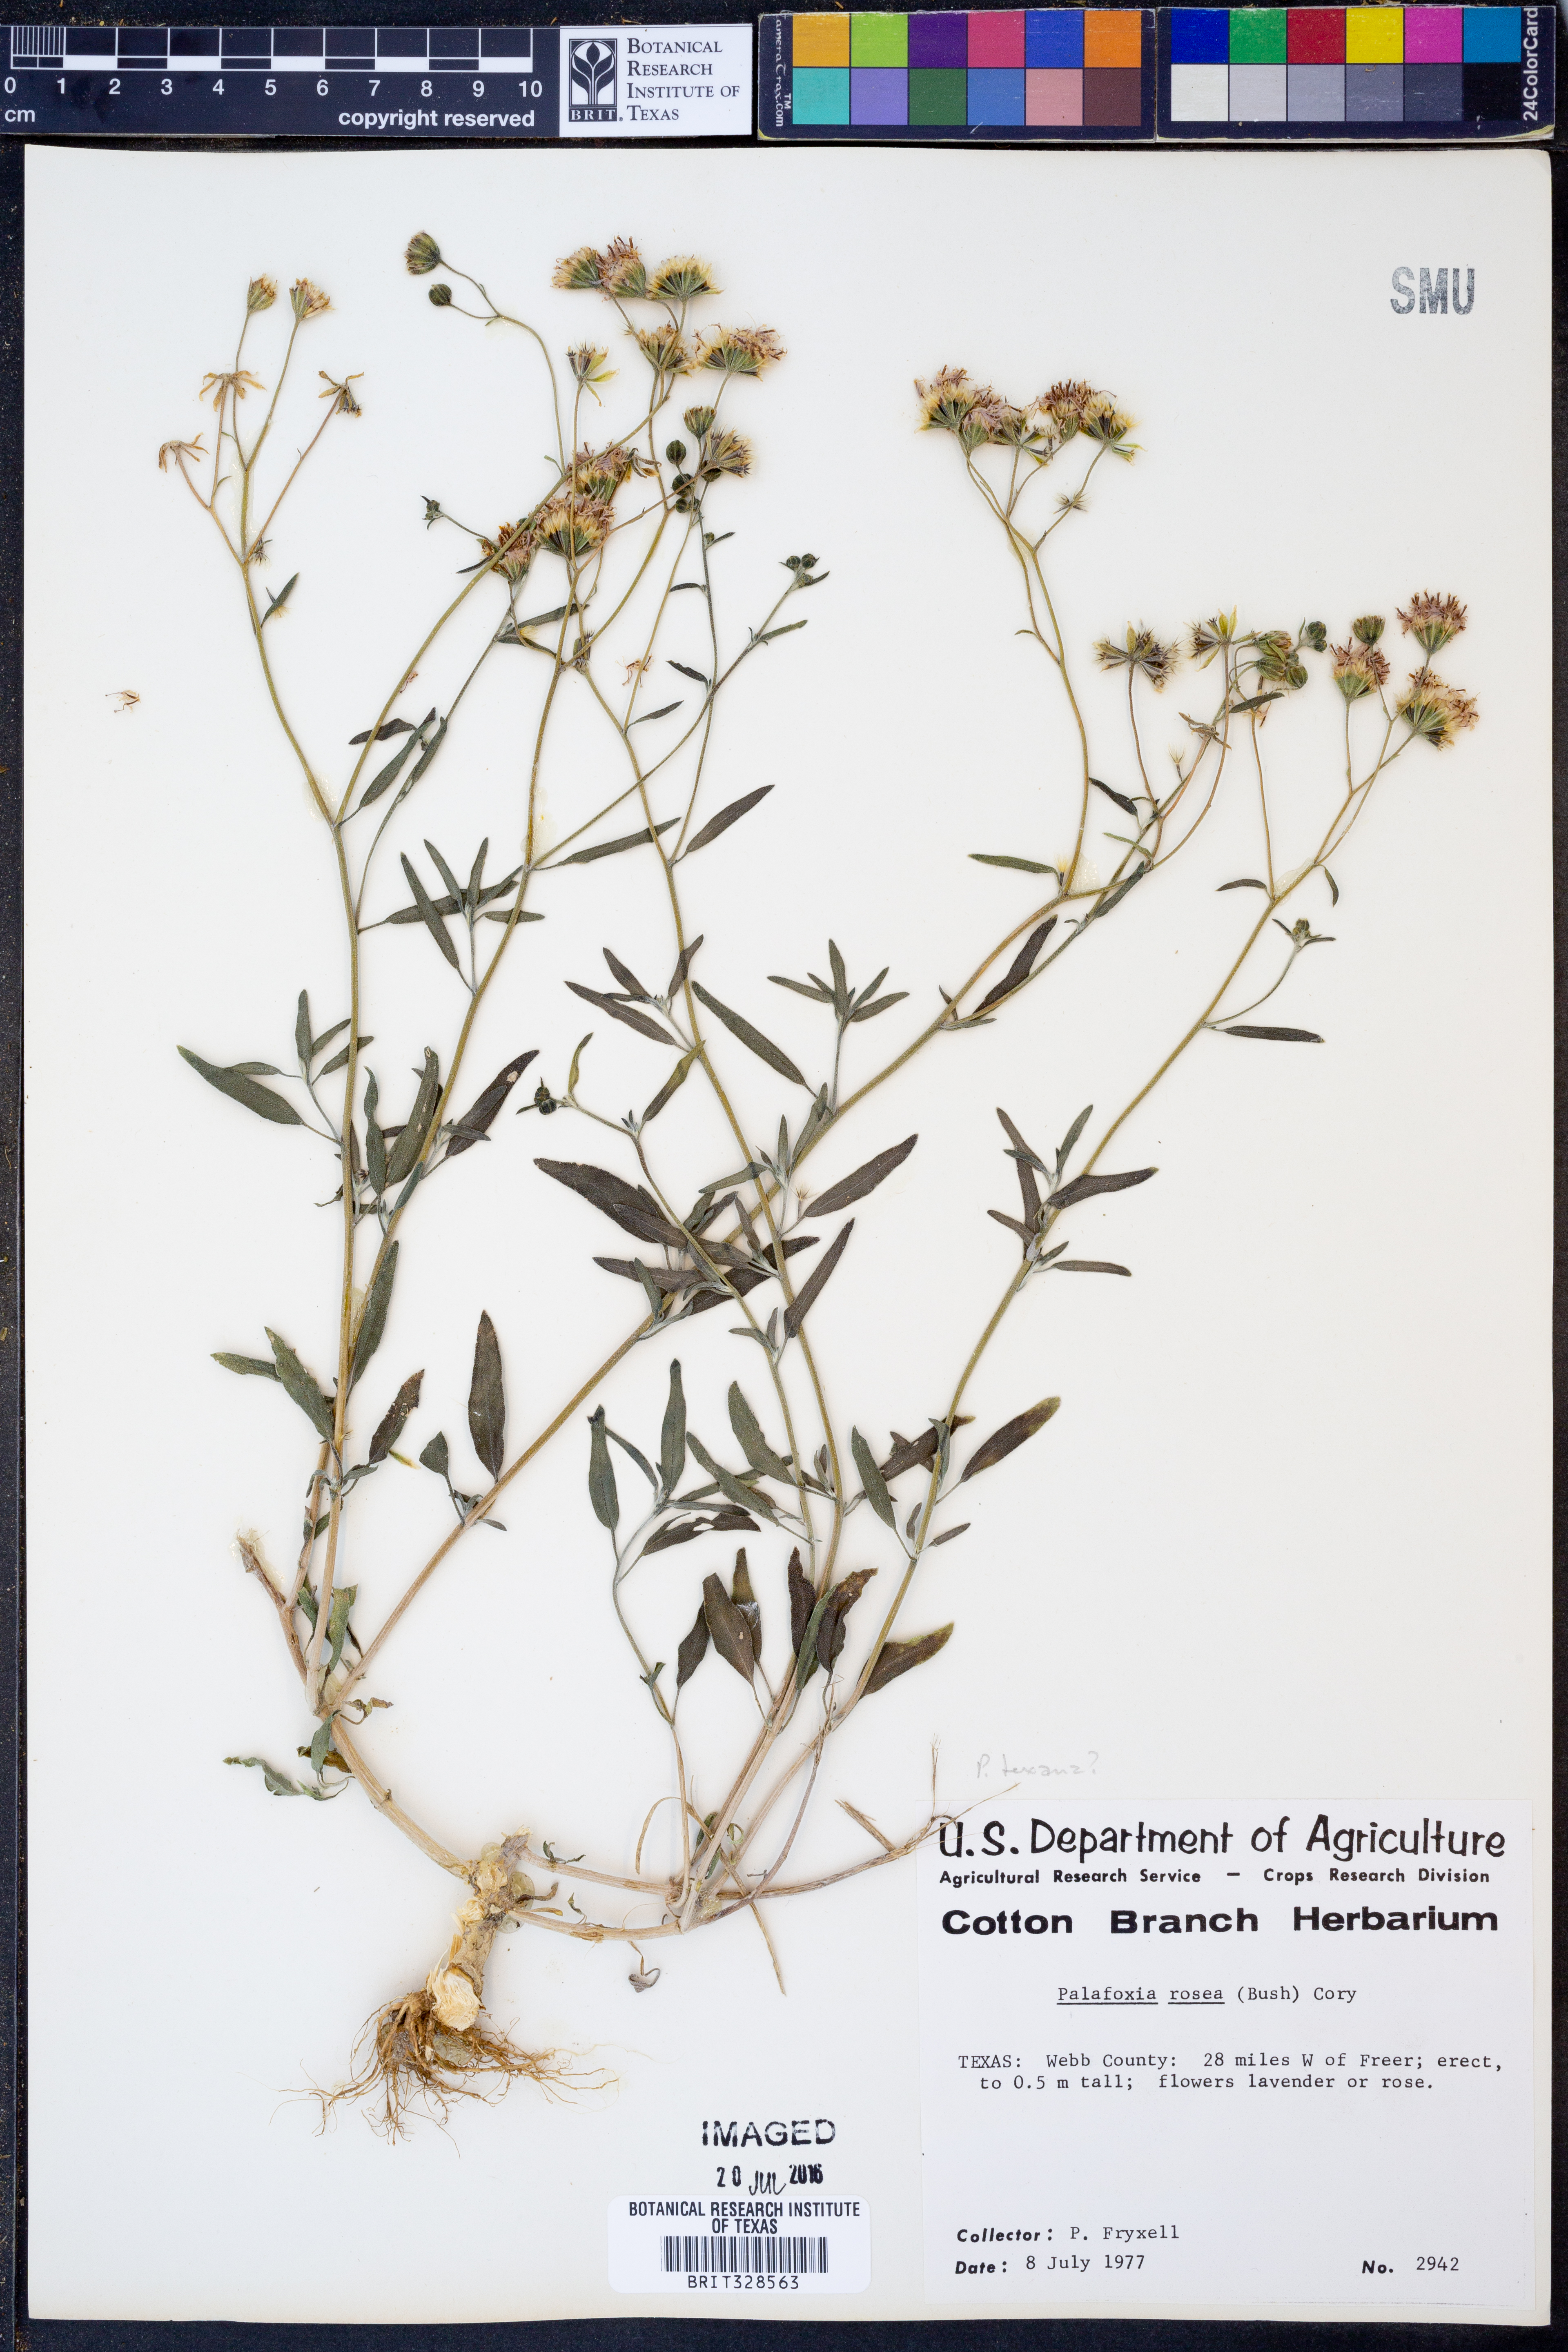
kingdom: Plantae
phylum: Tracheophyta
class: Magnoliopsida
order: Asterales
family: Asteraceae
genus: Palafoxia
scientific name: Palafoxia rosea
